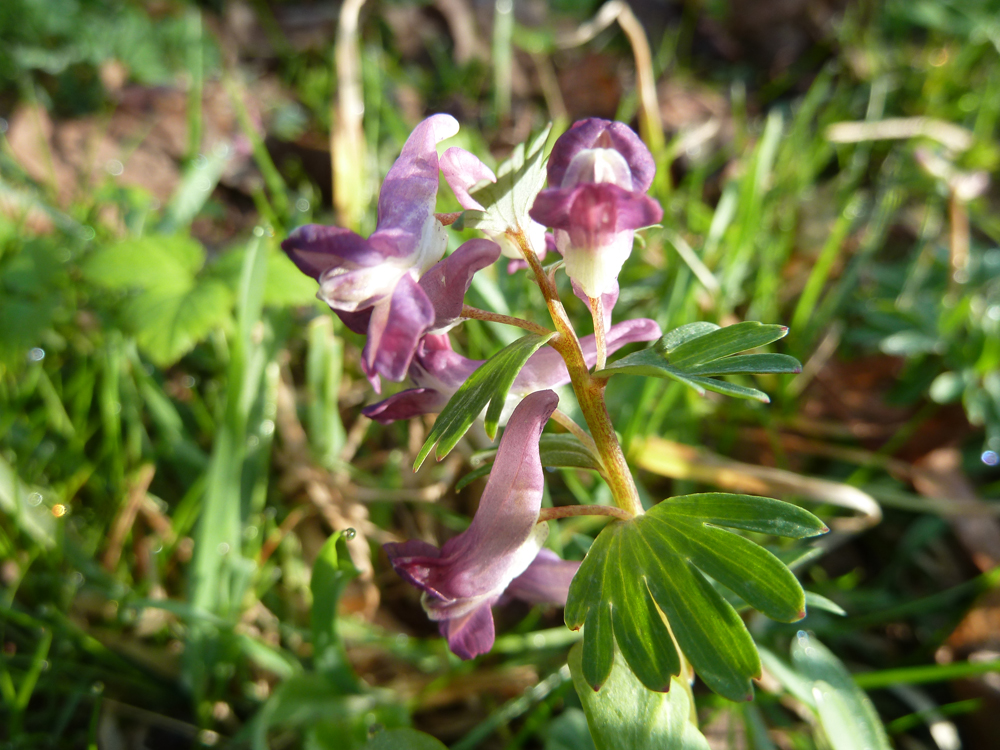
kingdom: Plantae
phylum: Tracheophyta
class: Magnoliopsida
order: Ranunculales
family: Papaveraceae
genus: Corydalis
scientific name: Corydalis solida
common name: Bird-in-a-bush
